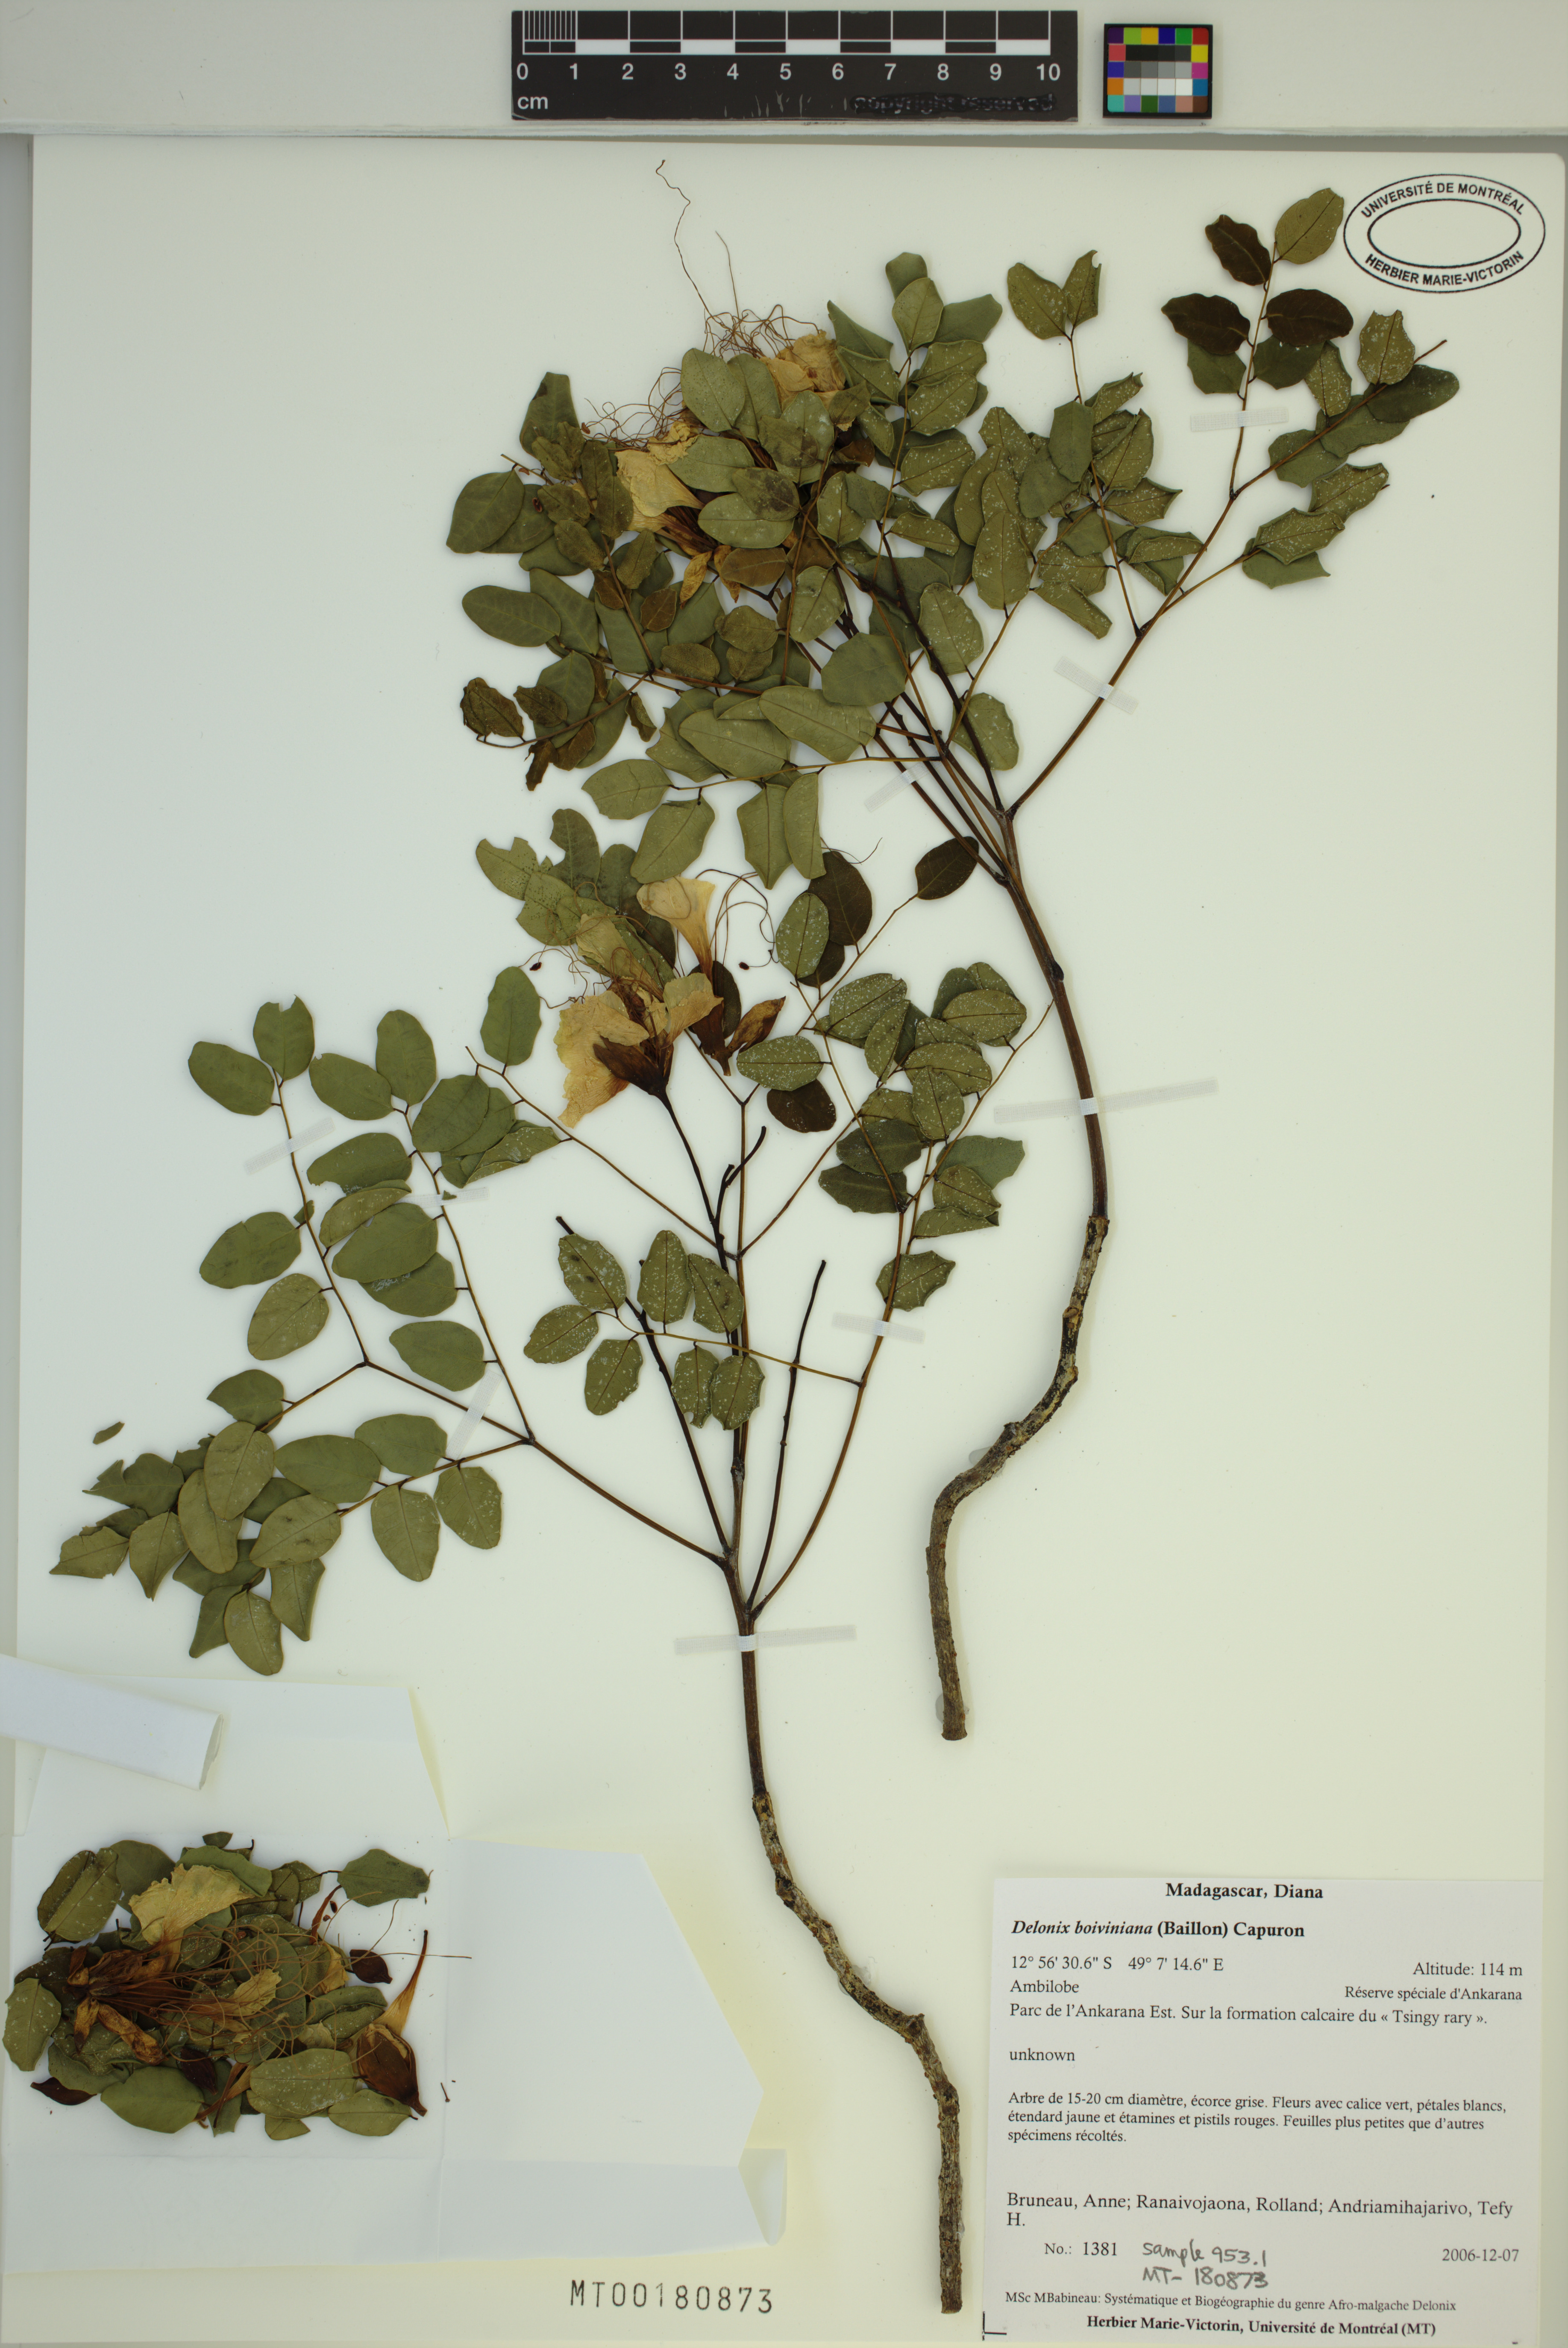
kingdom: Plantae
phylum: Tracheophyta
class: Magnoliopsida
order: Fabales
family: Fabaceae
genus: Delonix
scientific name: Delonix boiviniana
